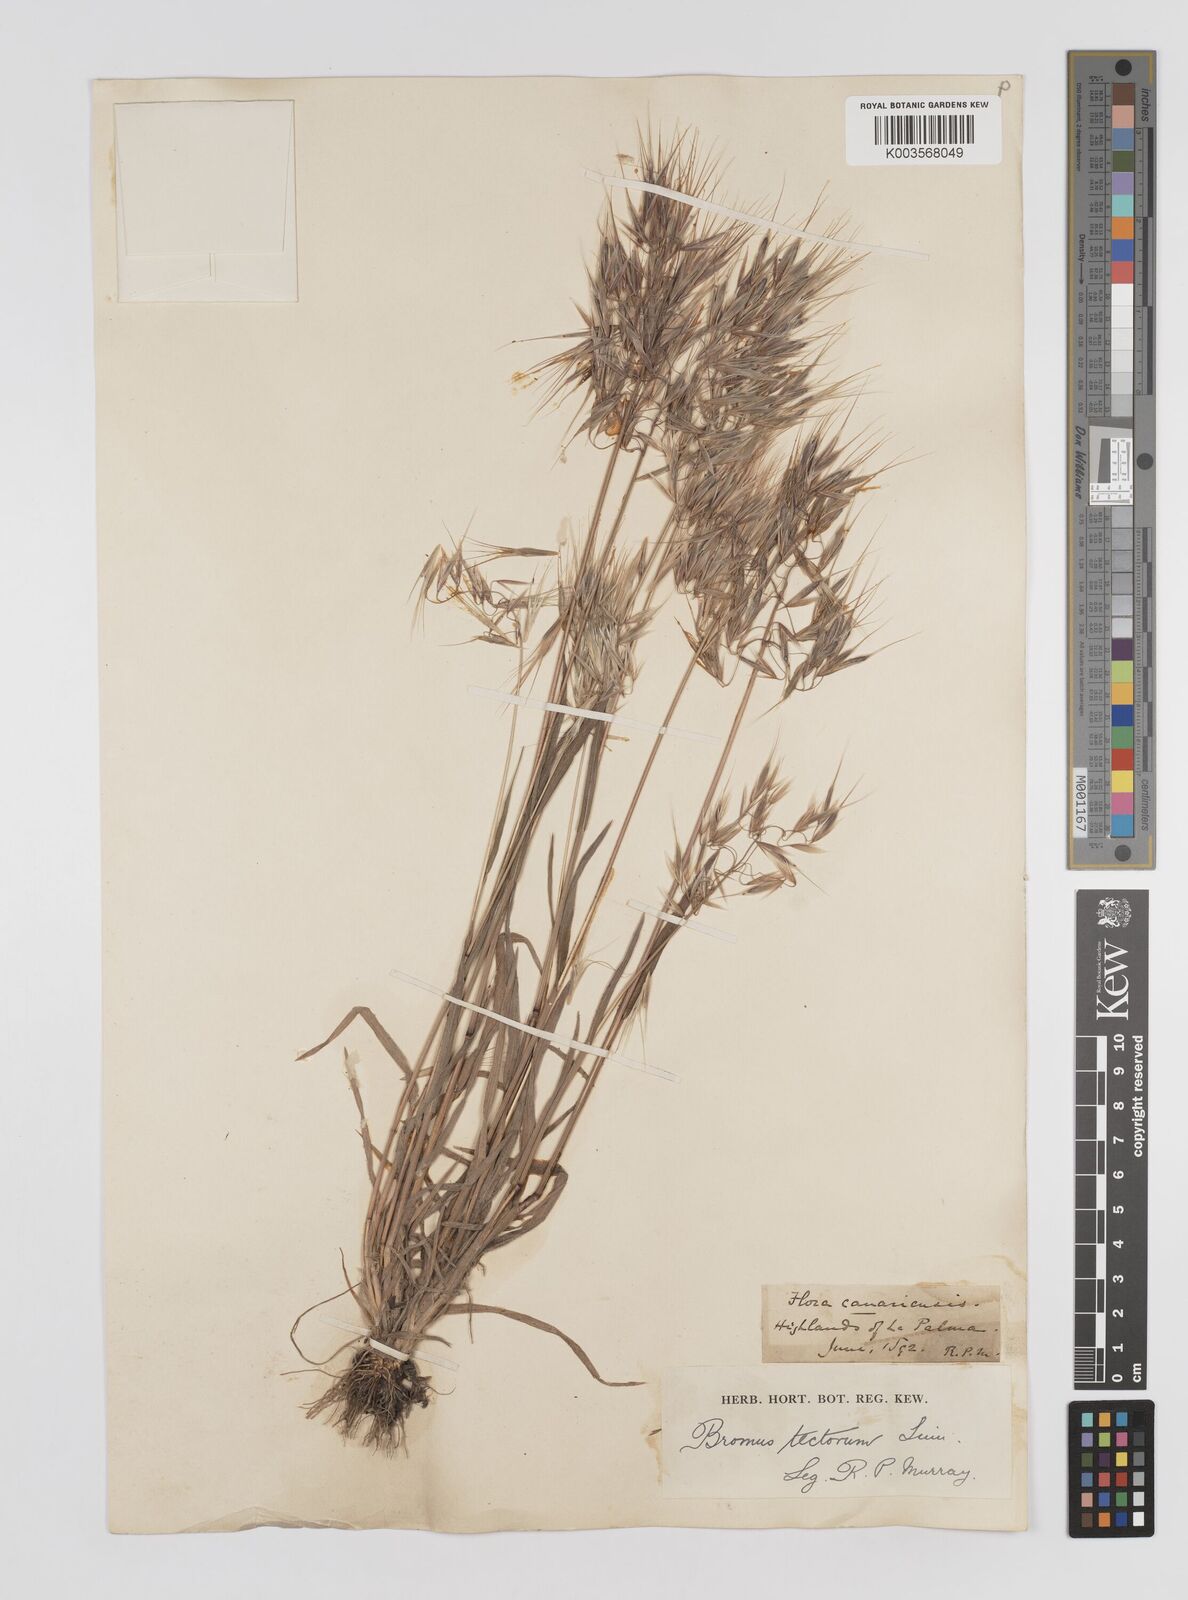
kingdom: Plantae
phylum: Tracheophyta
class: Liliopsida
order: Poales
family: Poaceae
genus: Bromus
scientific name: Bromus tectorum
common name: Cheatgrass
